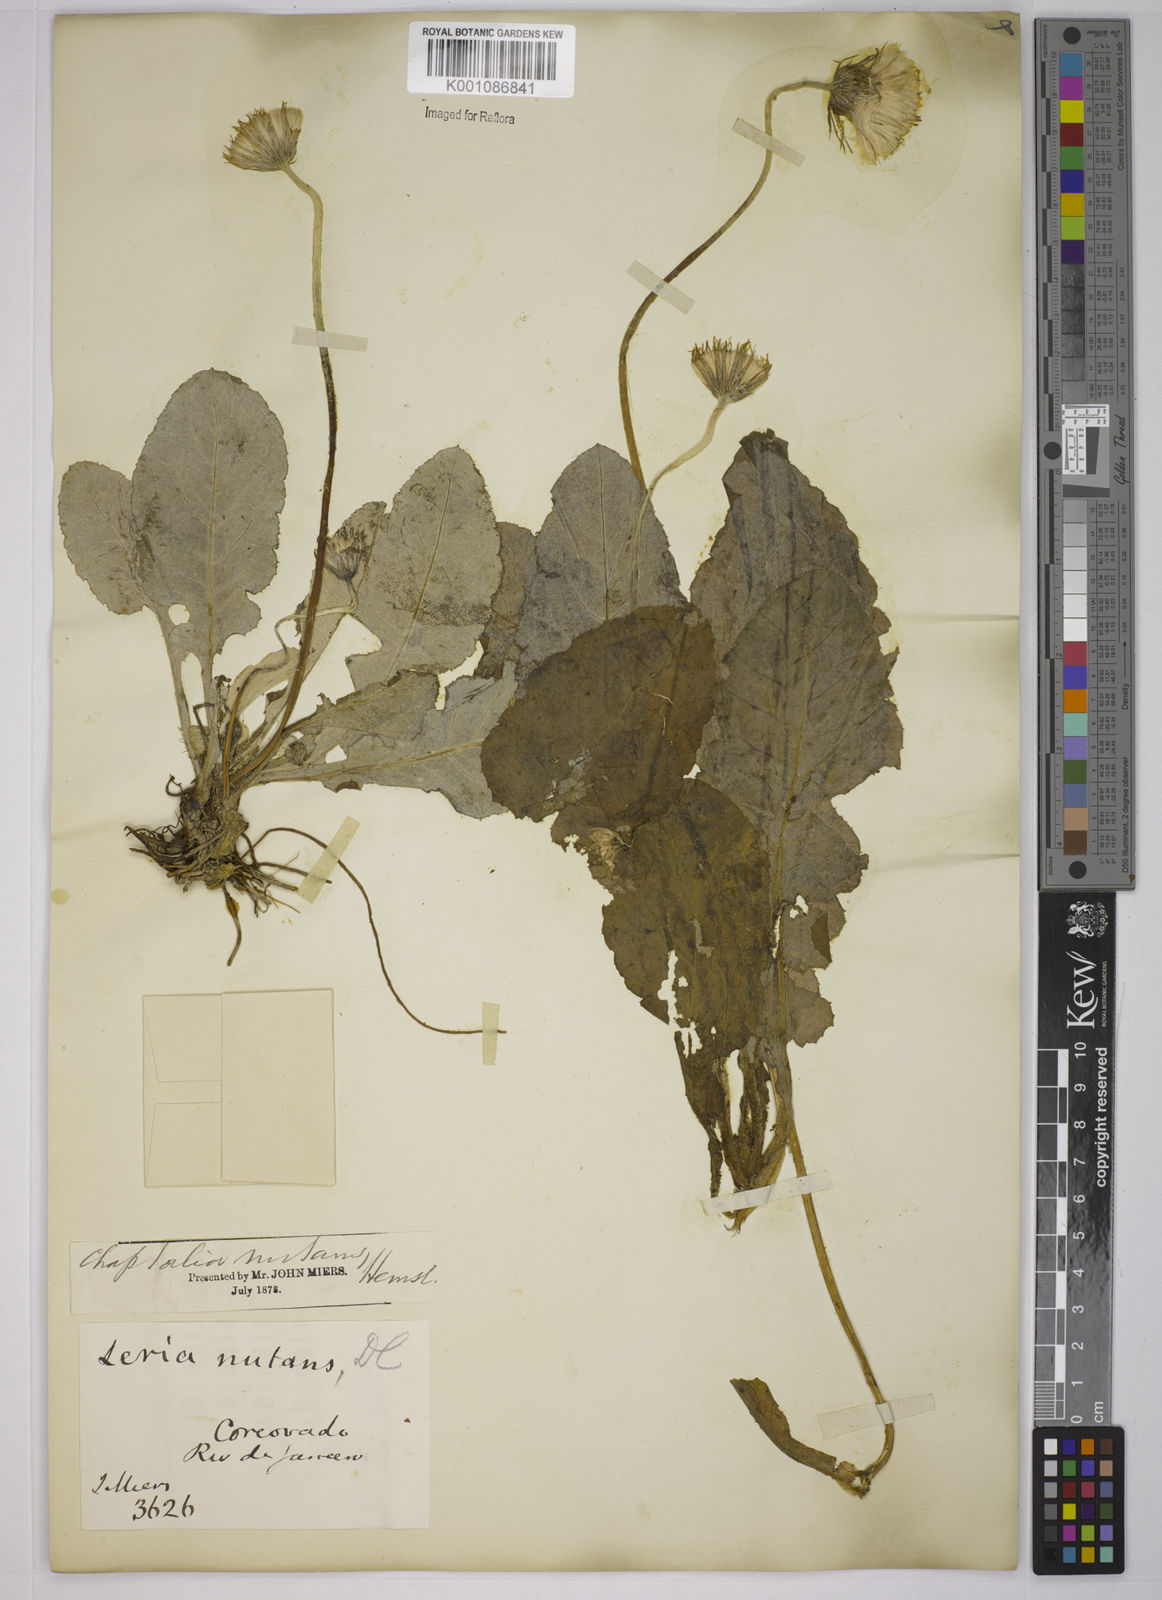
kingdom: Plantae
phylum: Tracheophyta
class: Magnoliopsida
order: Asterales
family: Asteraceae
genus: Chaptalia
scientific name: Chaptalia nutans
